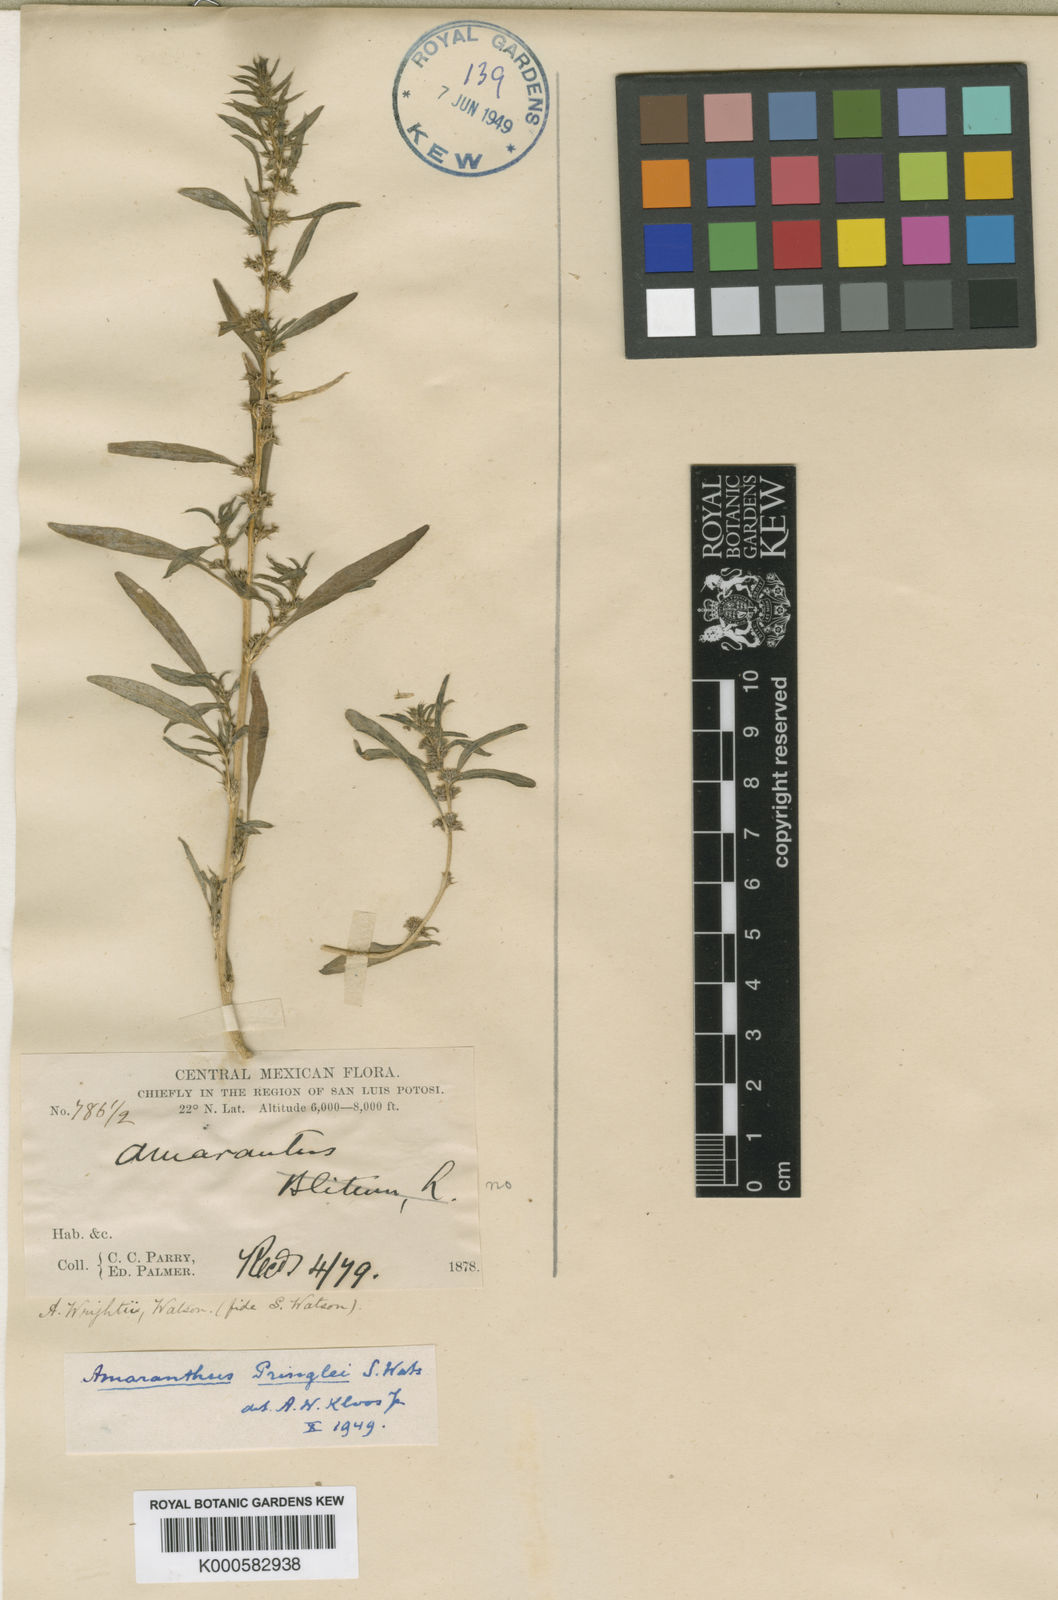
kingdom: Plantae
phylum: Tracheophyta
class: Magnoliopsida
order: Caryophyllales
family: Amaranthaceae
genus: Amaranthus
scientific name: Amaranthus torreyi
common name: Bigelow's amaranth
